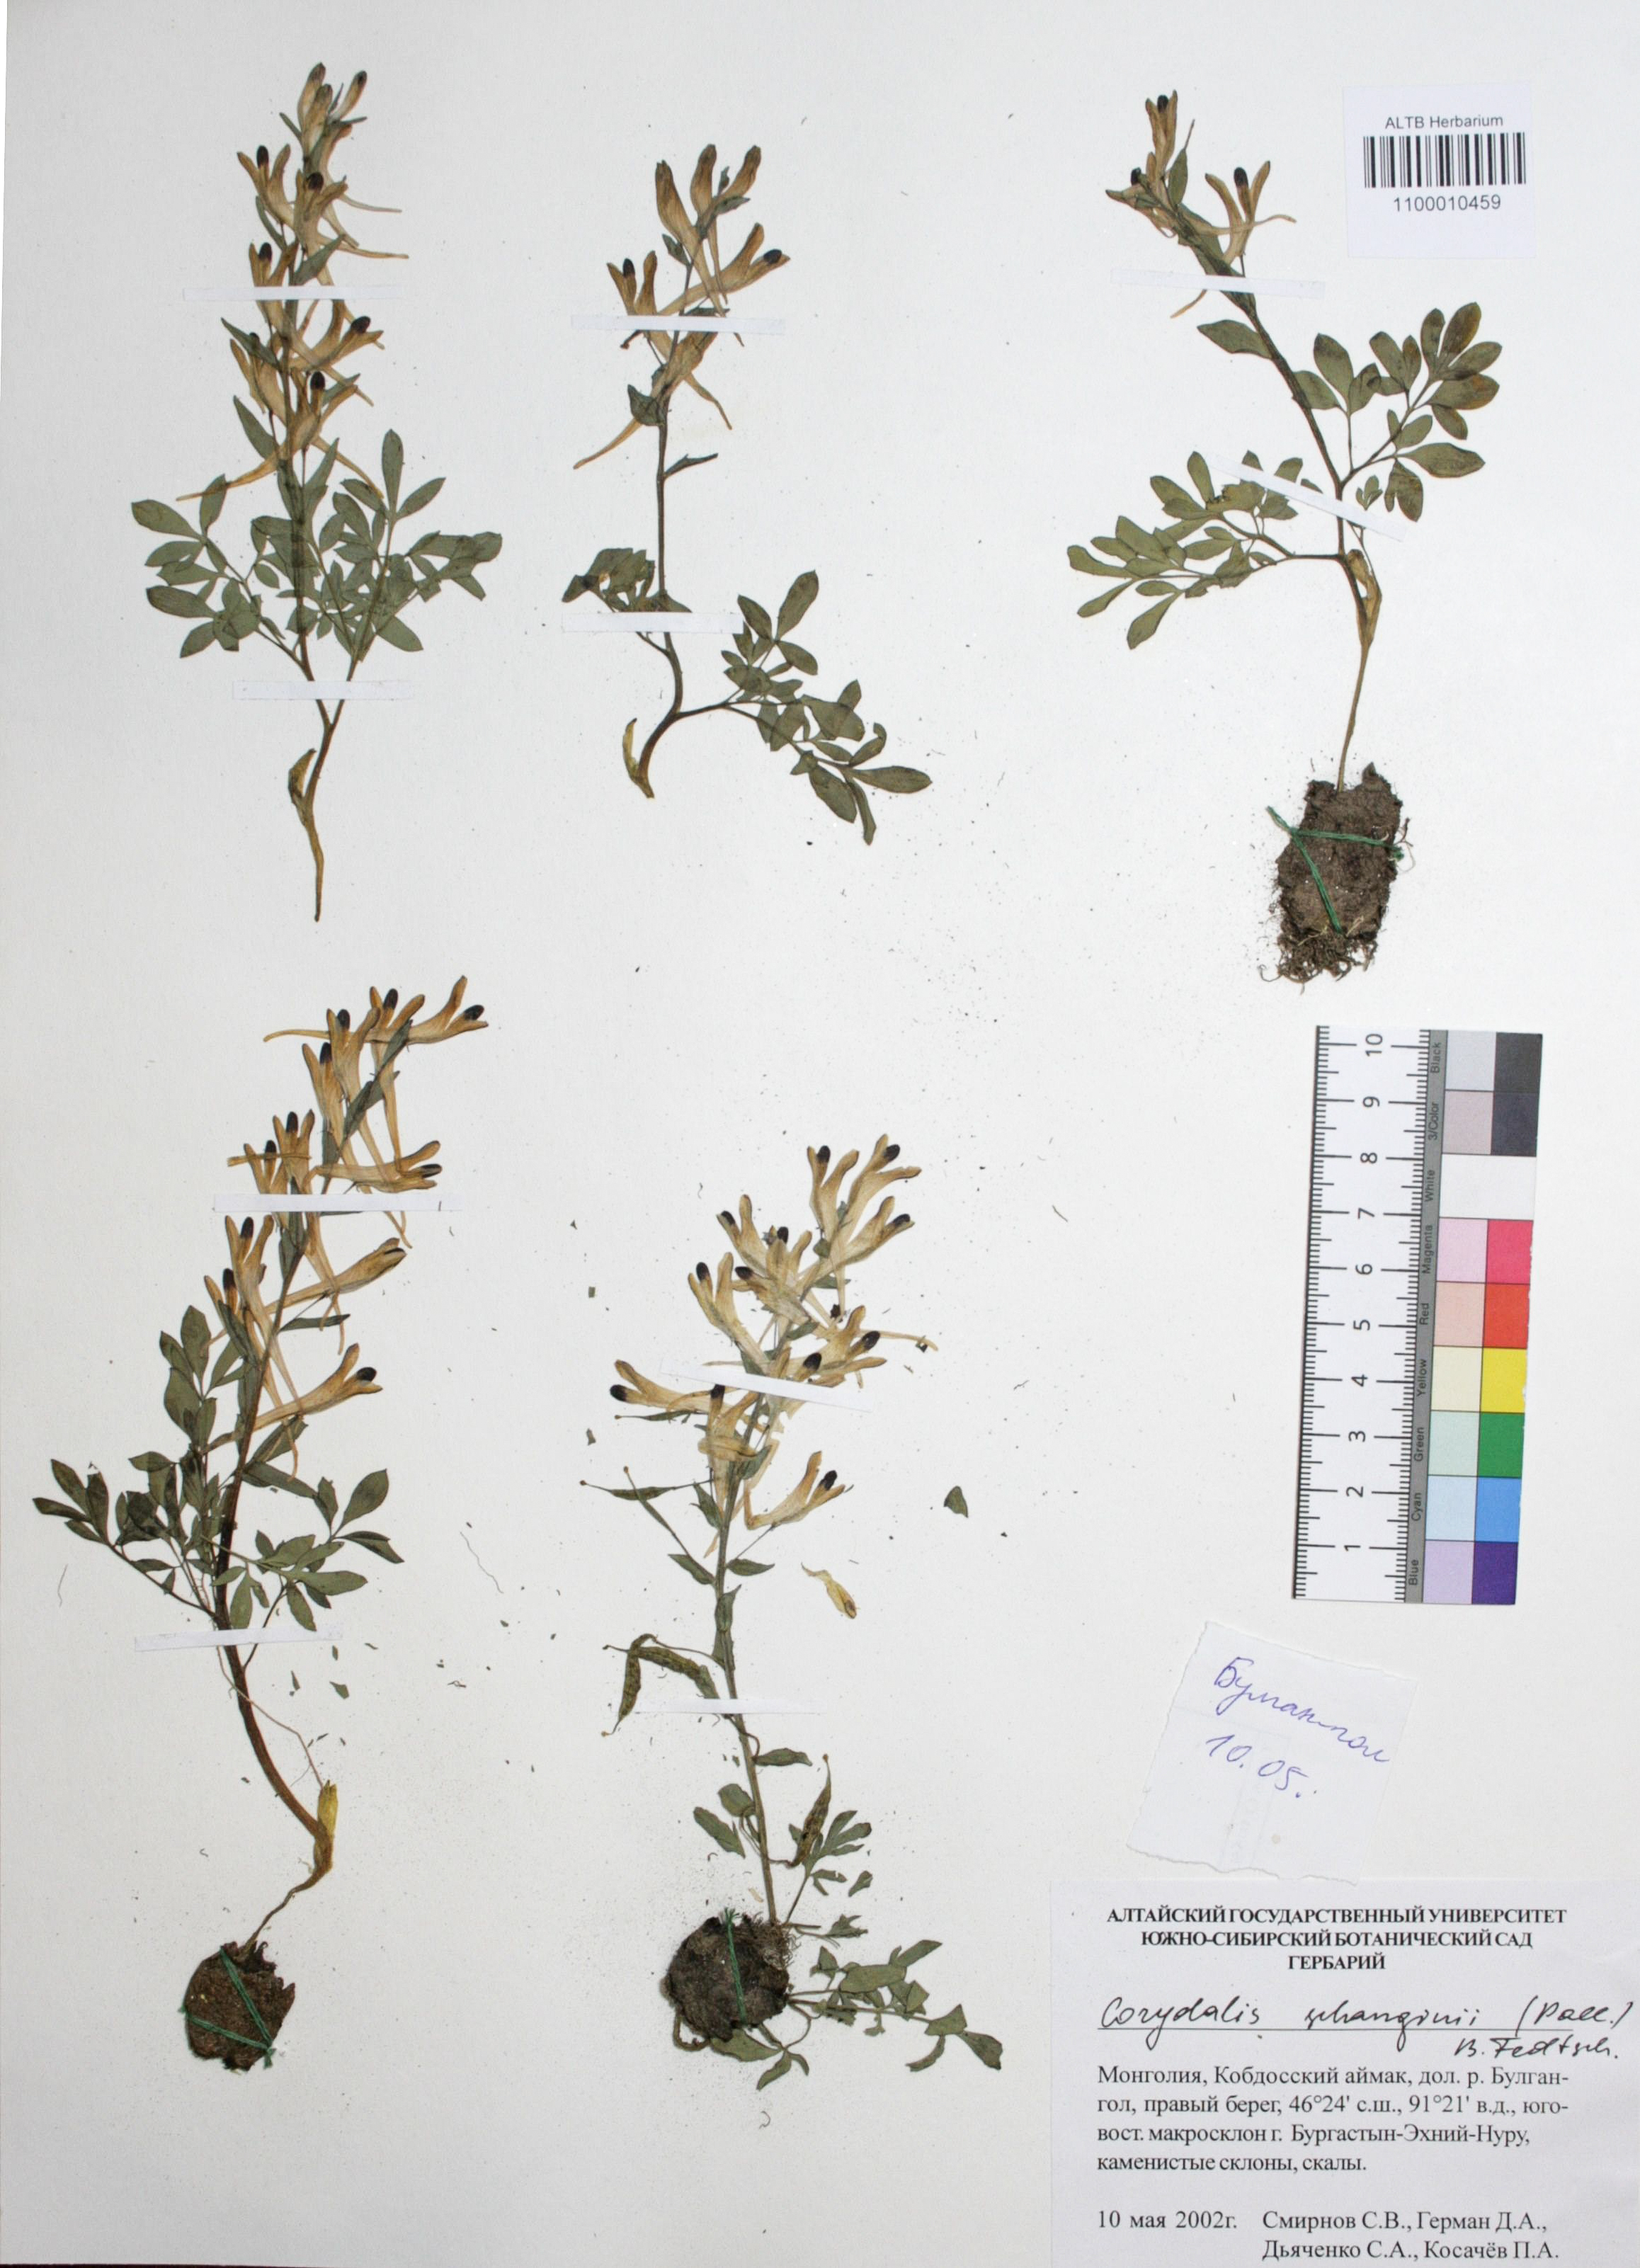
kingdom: Plantae
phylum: Tracheophyta
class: Magnoliopsida
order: Ranunculales
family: Papaveraceae
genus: Corydalis
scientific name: Corydalis schanginii
